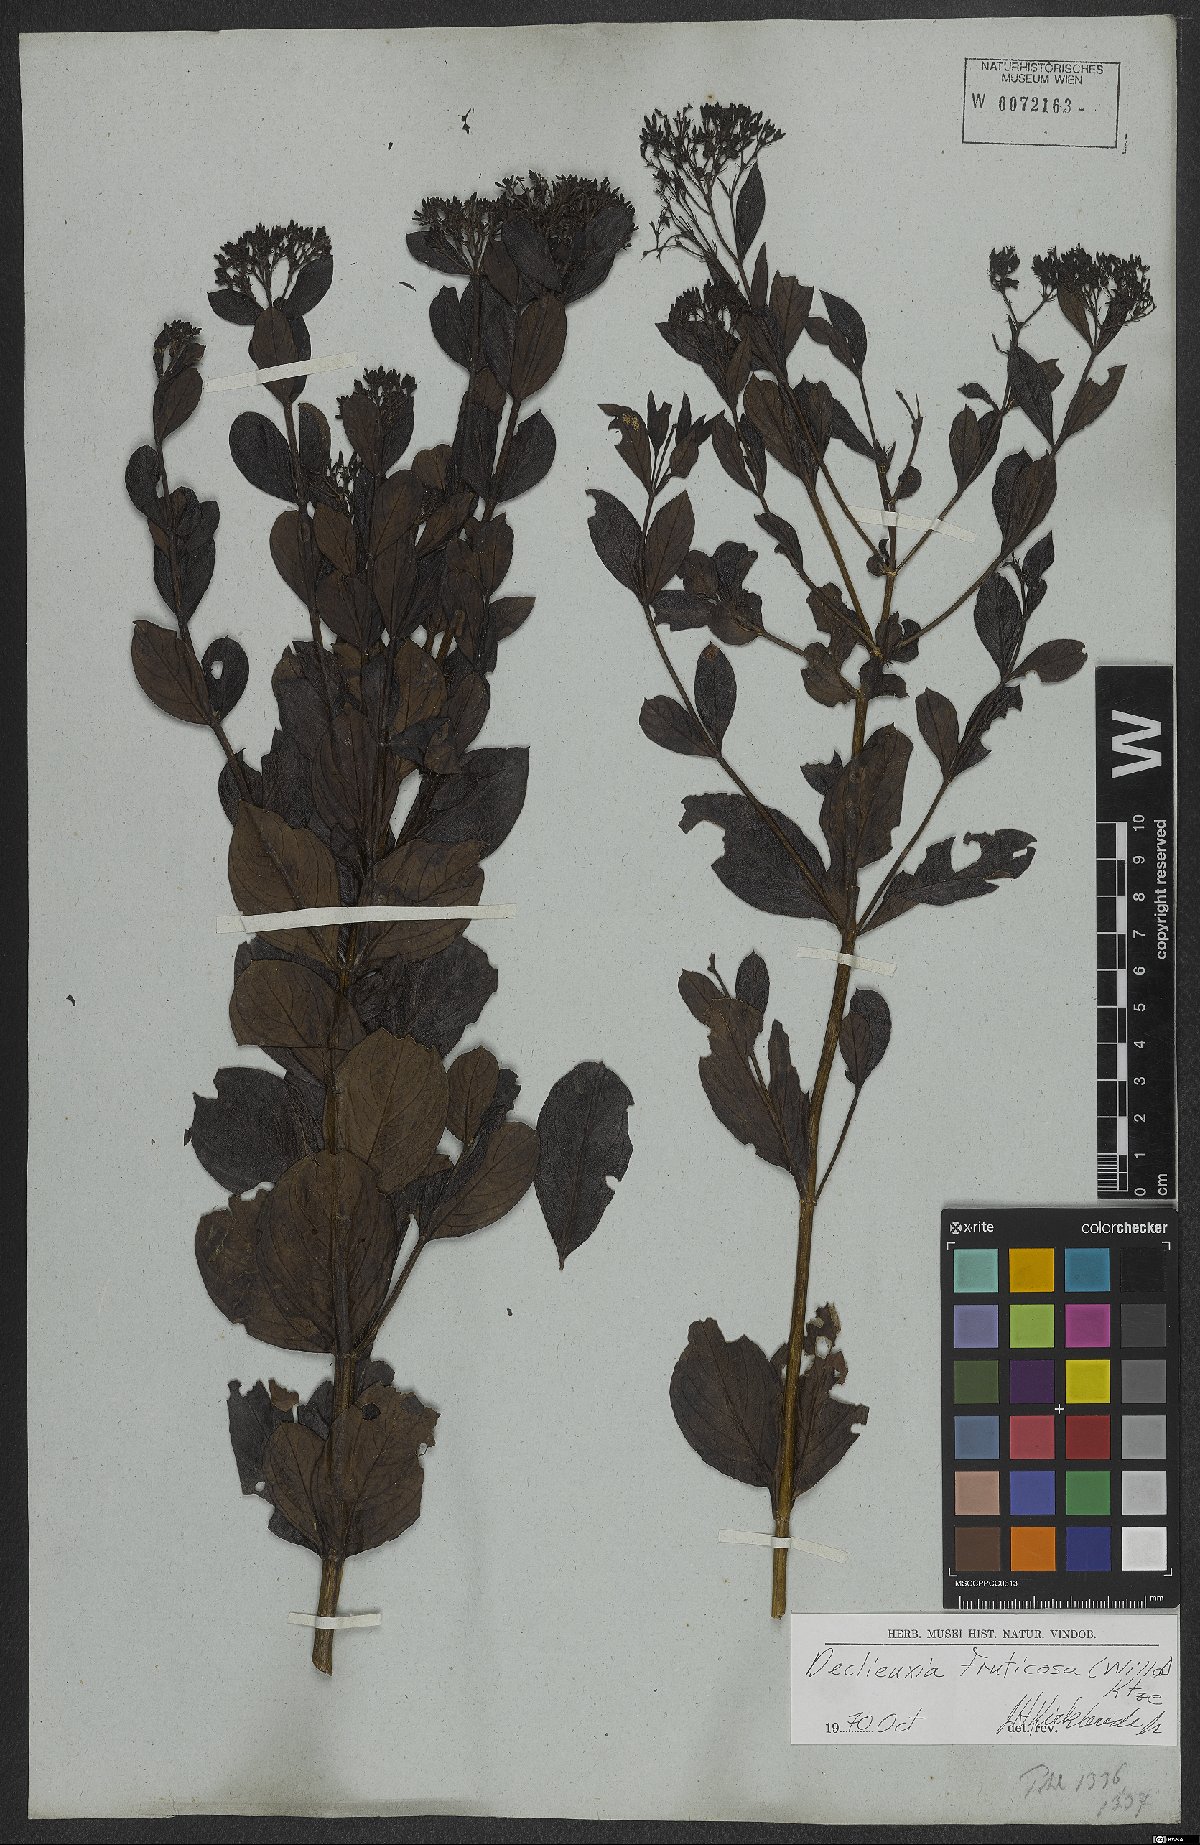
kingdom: Plantae
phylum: Tracheophyta
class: Magnoliopsida
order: Gentianales
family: Rubiaceae
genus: Declieuxia
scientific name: Declieuxia fruticosa
